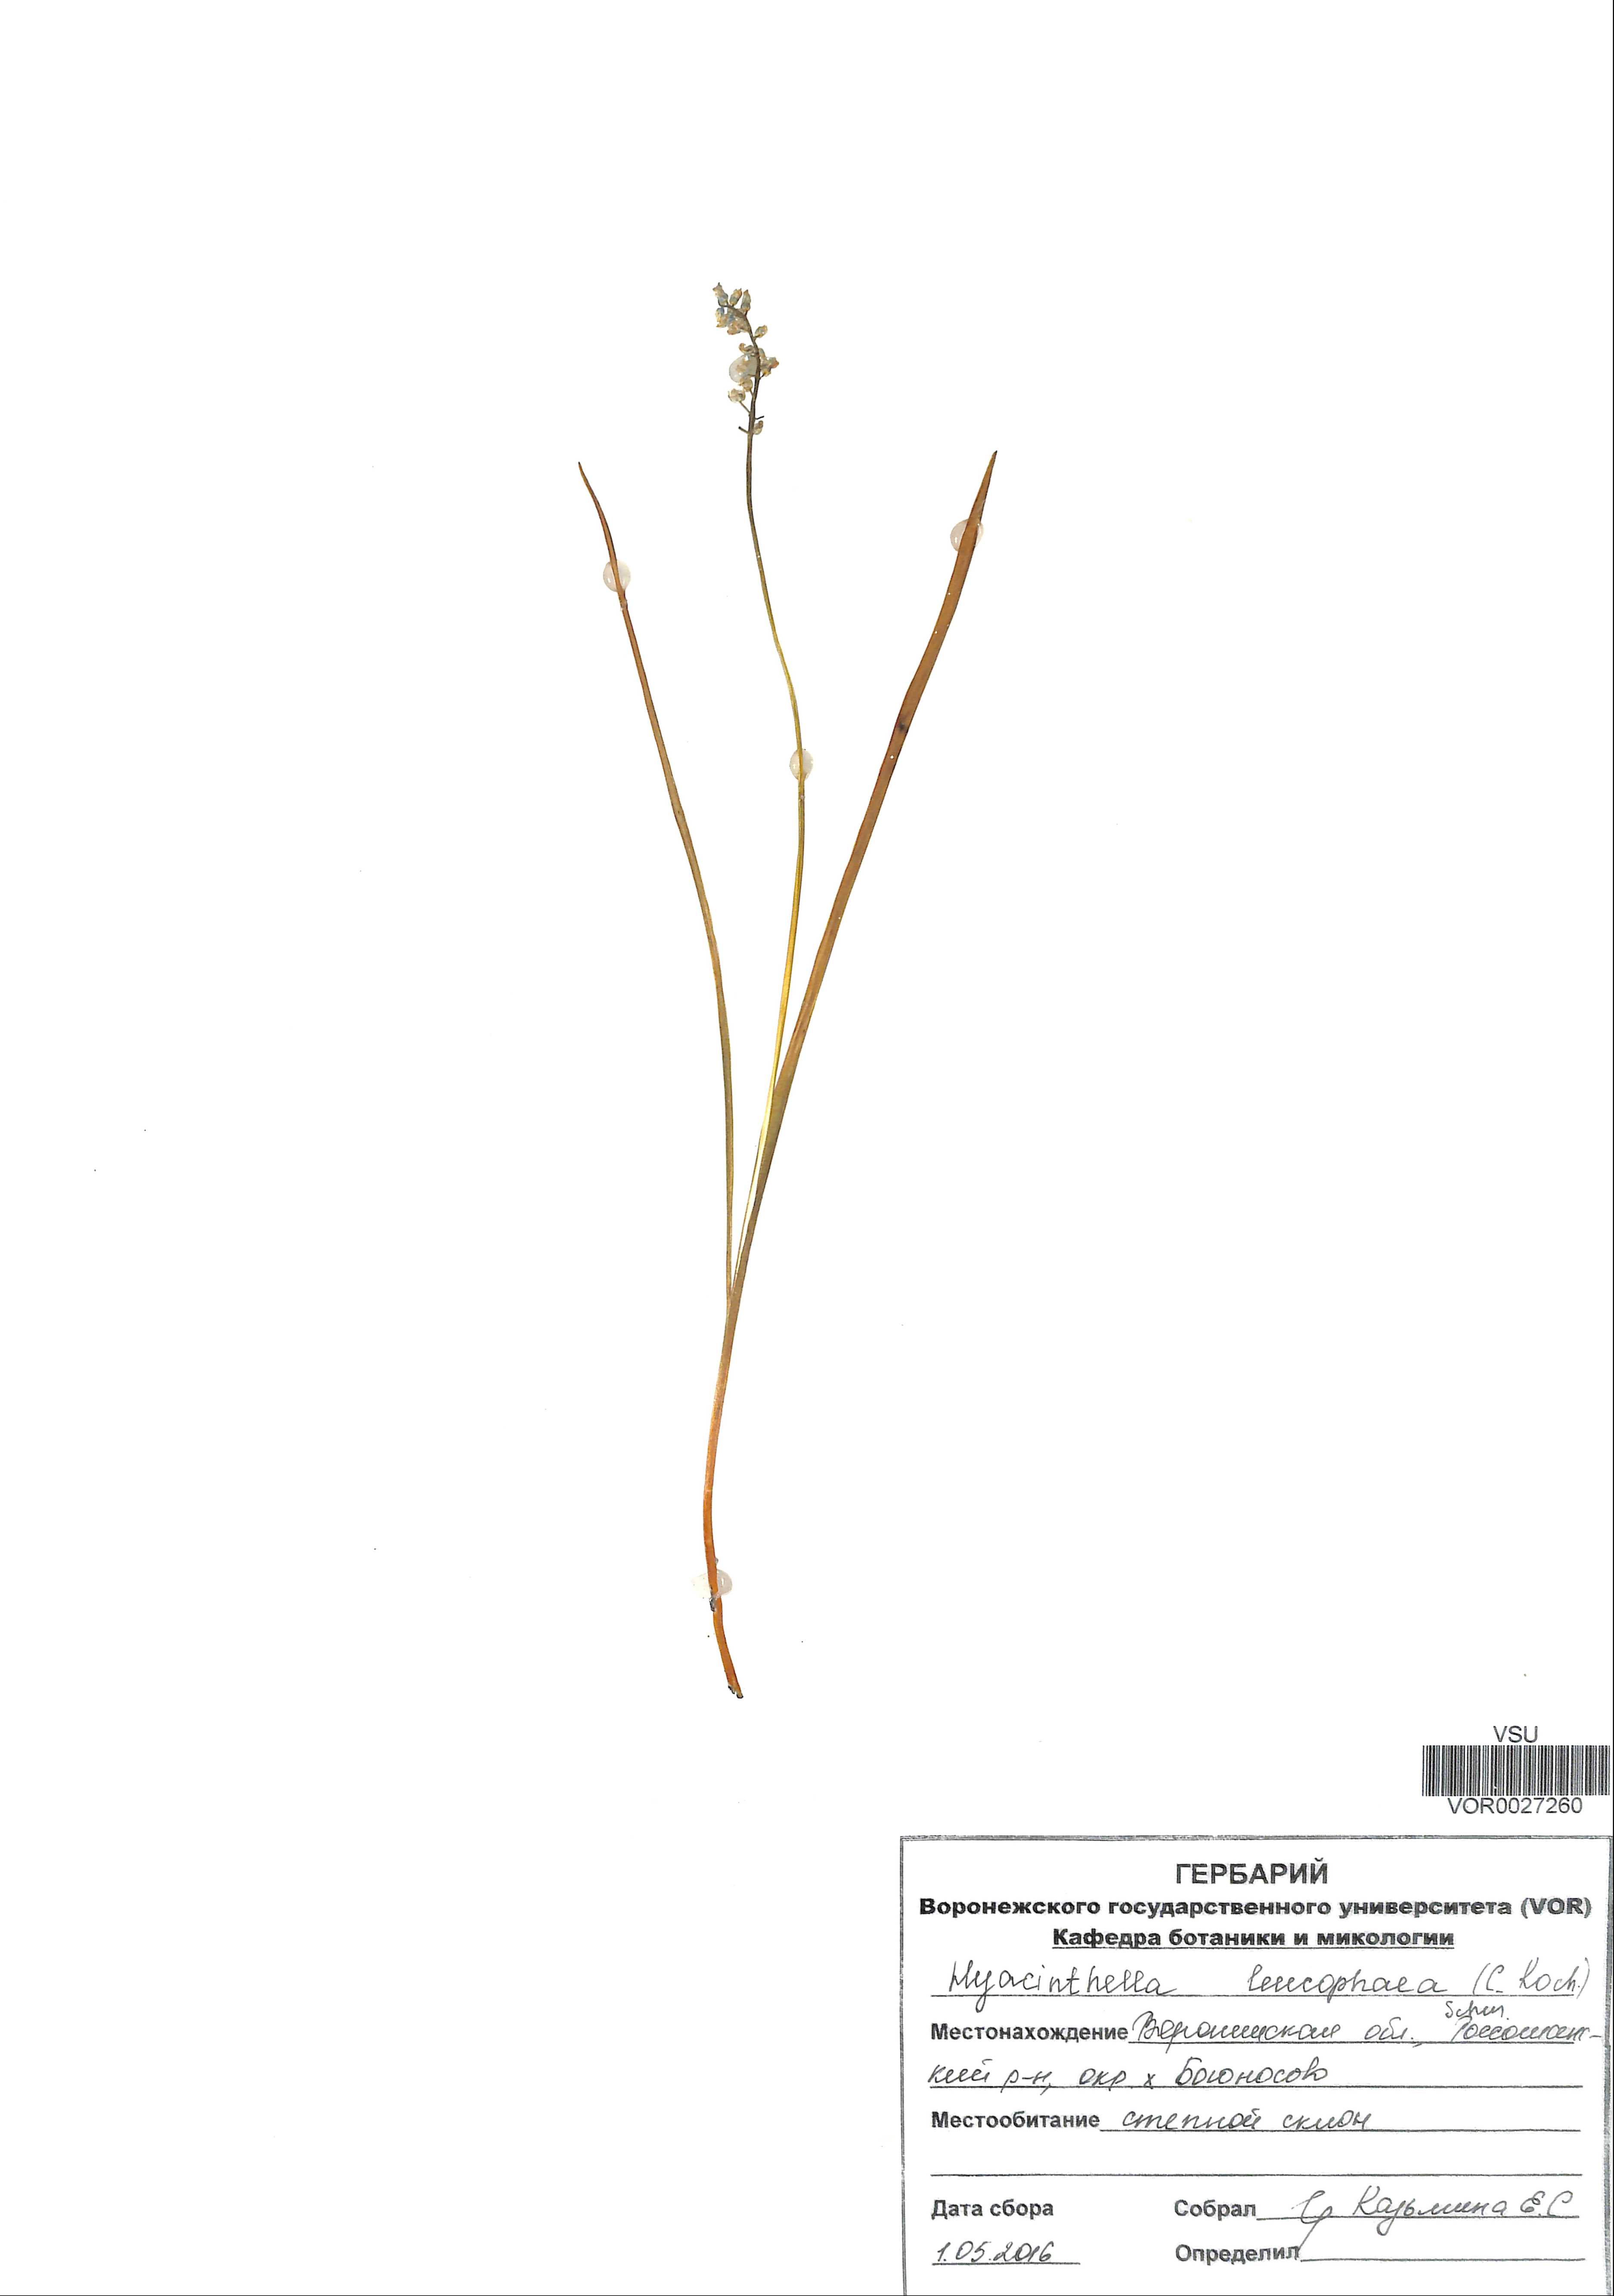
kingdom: Plantae
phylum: Tracheophyta
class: Liliopsida
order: Asparagales
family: Asparagaceae
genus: Hyacinthella
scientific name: Hyacinthella leucophaea
